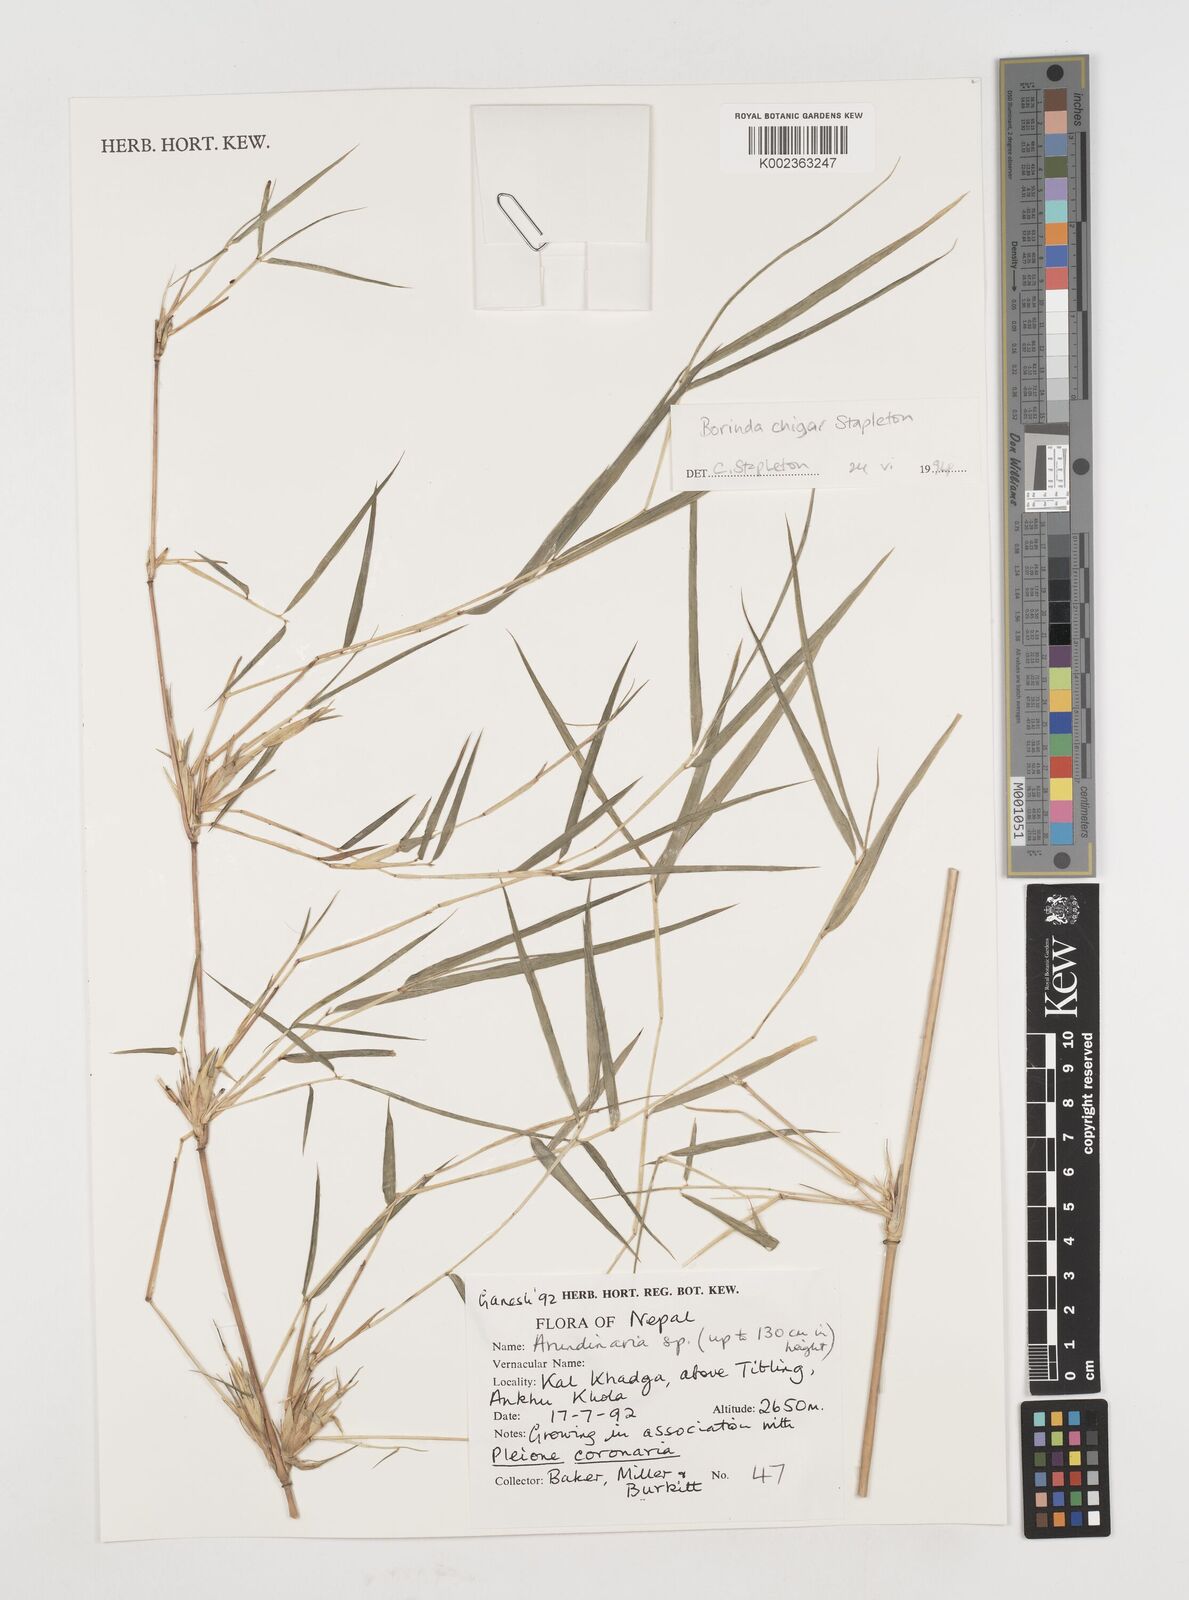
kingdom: Plantae
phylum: Tracheophyta
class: Liliopsida
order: Poales
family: Poaceae
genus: Fargesia
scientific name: Fargesia
